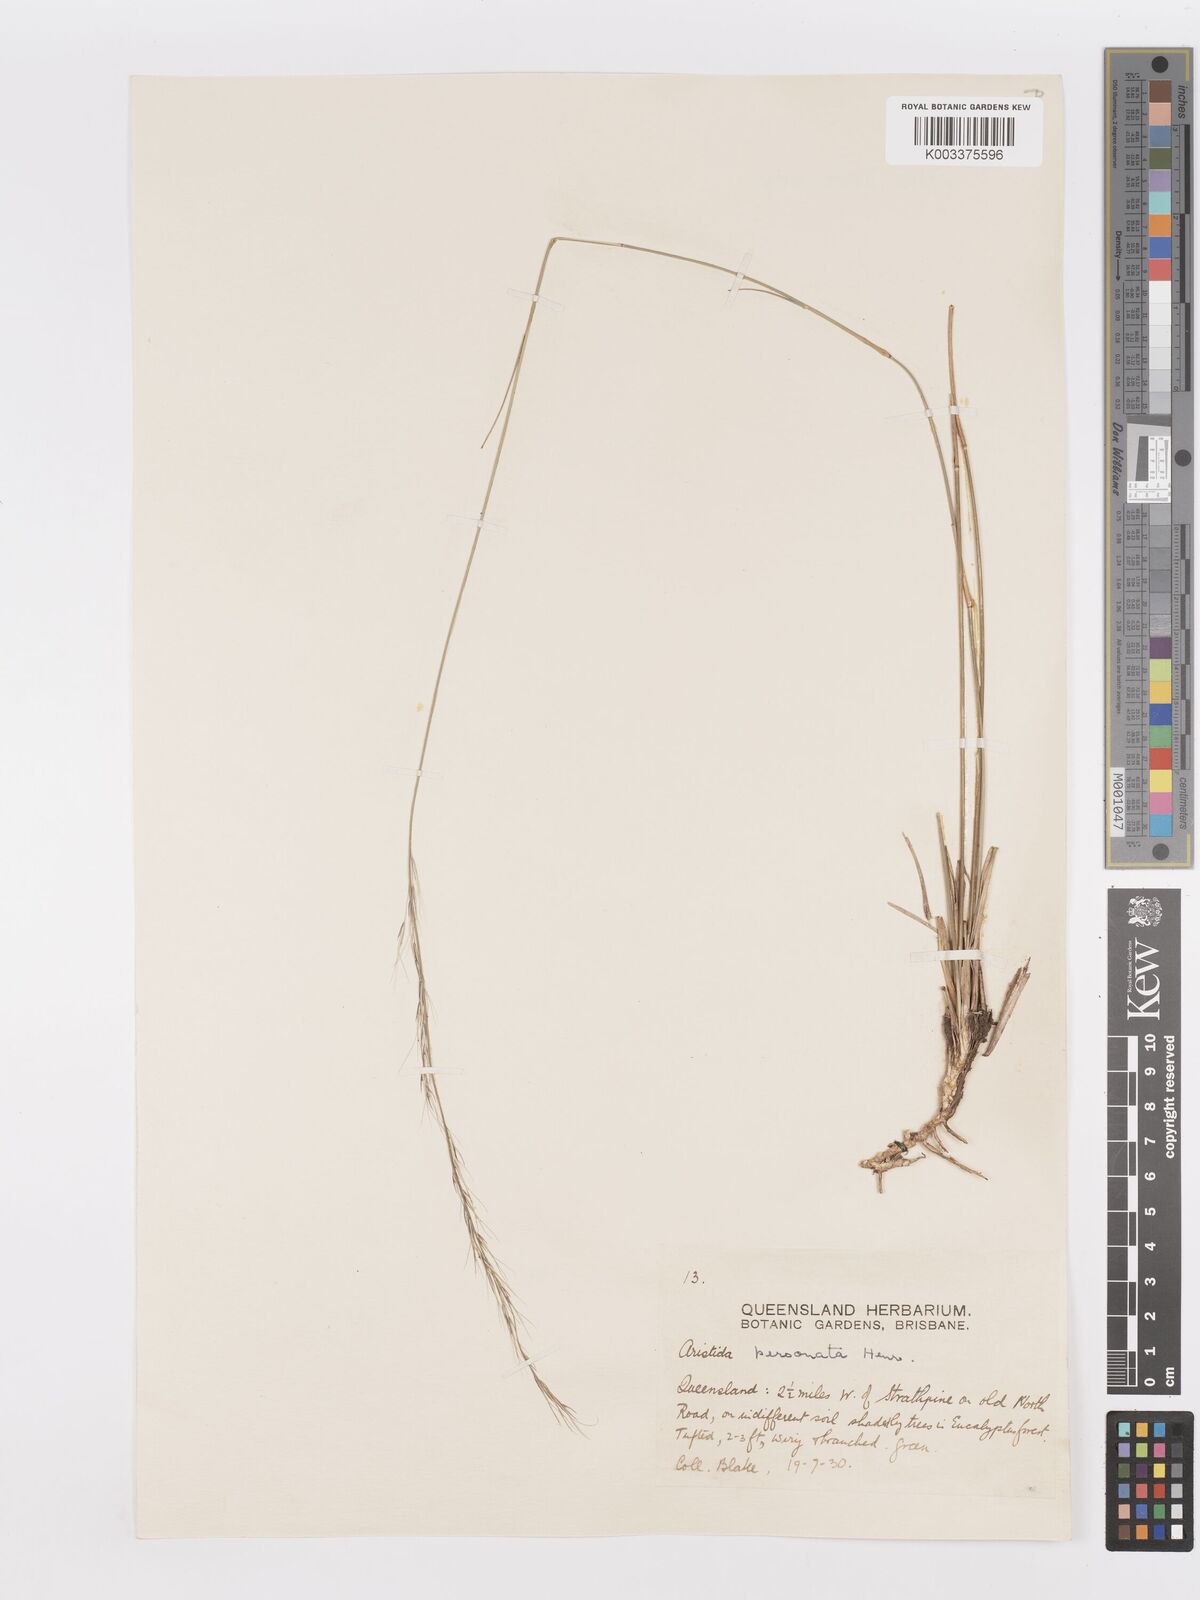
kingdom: Plantae
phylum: Tracheophyta
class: Liliopsida
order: Poales
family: Poaceae
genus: Aristida
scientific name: Aristida personata
